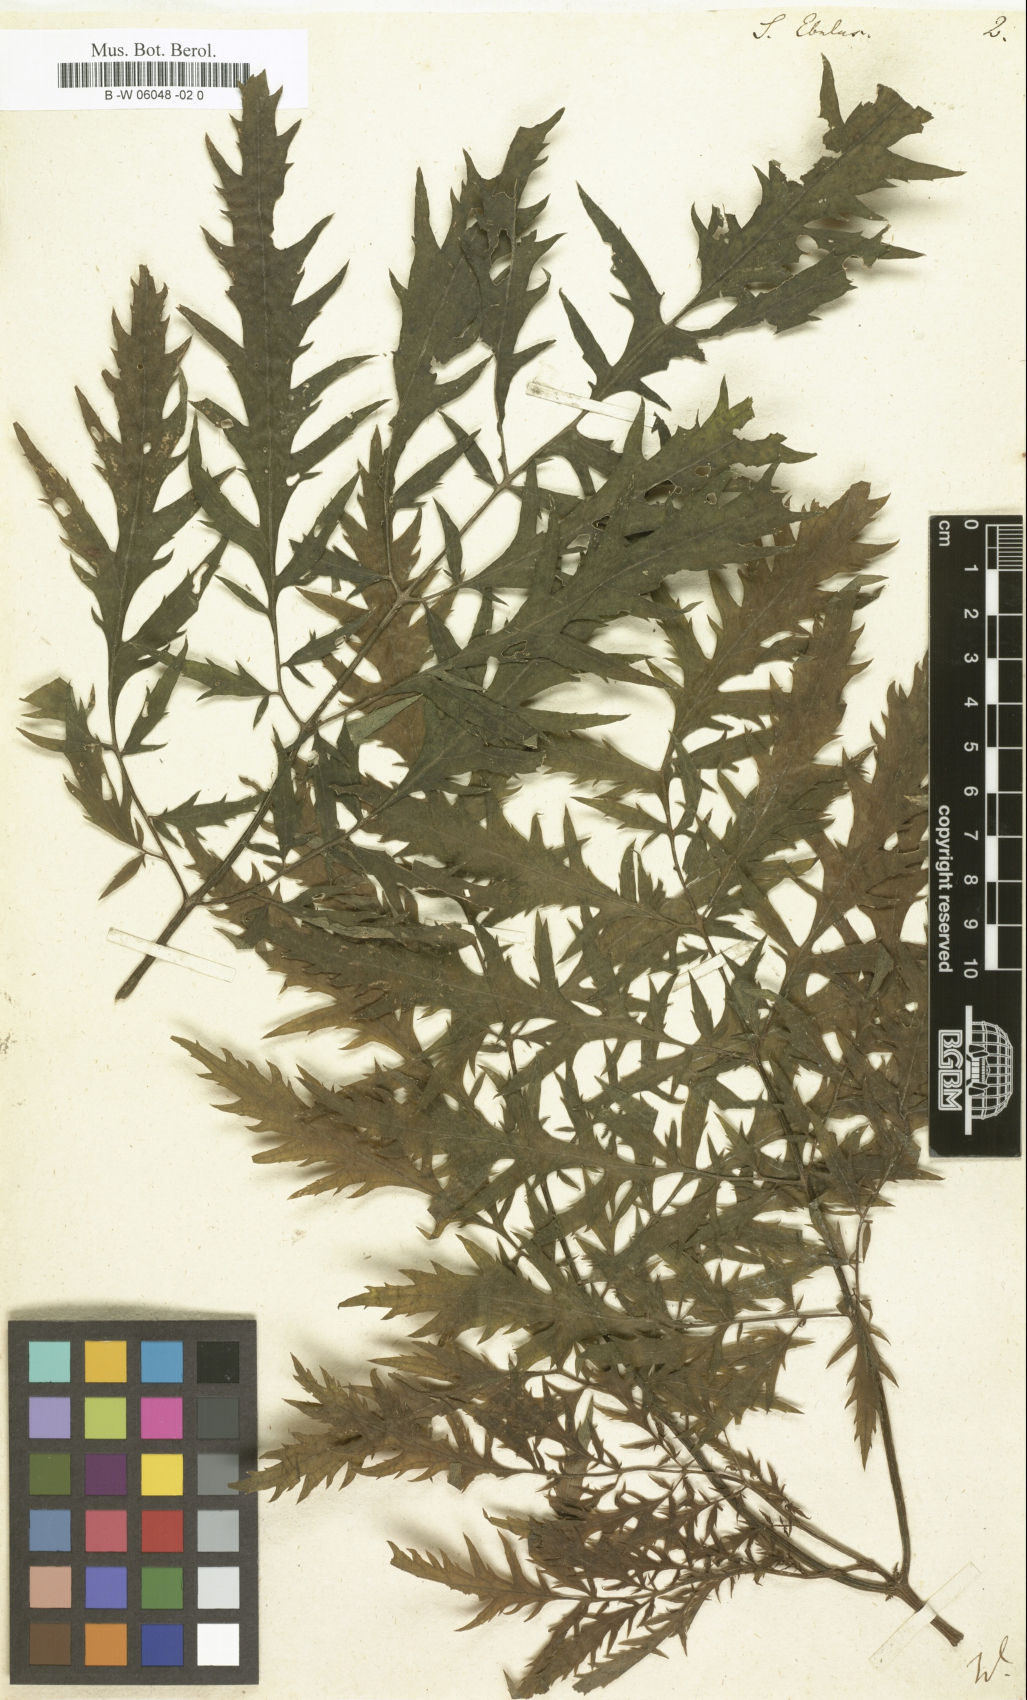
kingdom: Plantae
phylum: Tracheophyta
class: Magnoliopsida
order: Dipsacales
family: Viburnaceae
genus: Sambucus
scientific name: Sambucus ebulus
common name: Dwarf elder
